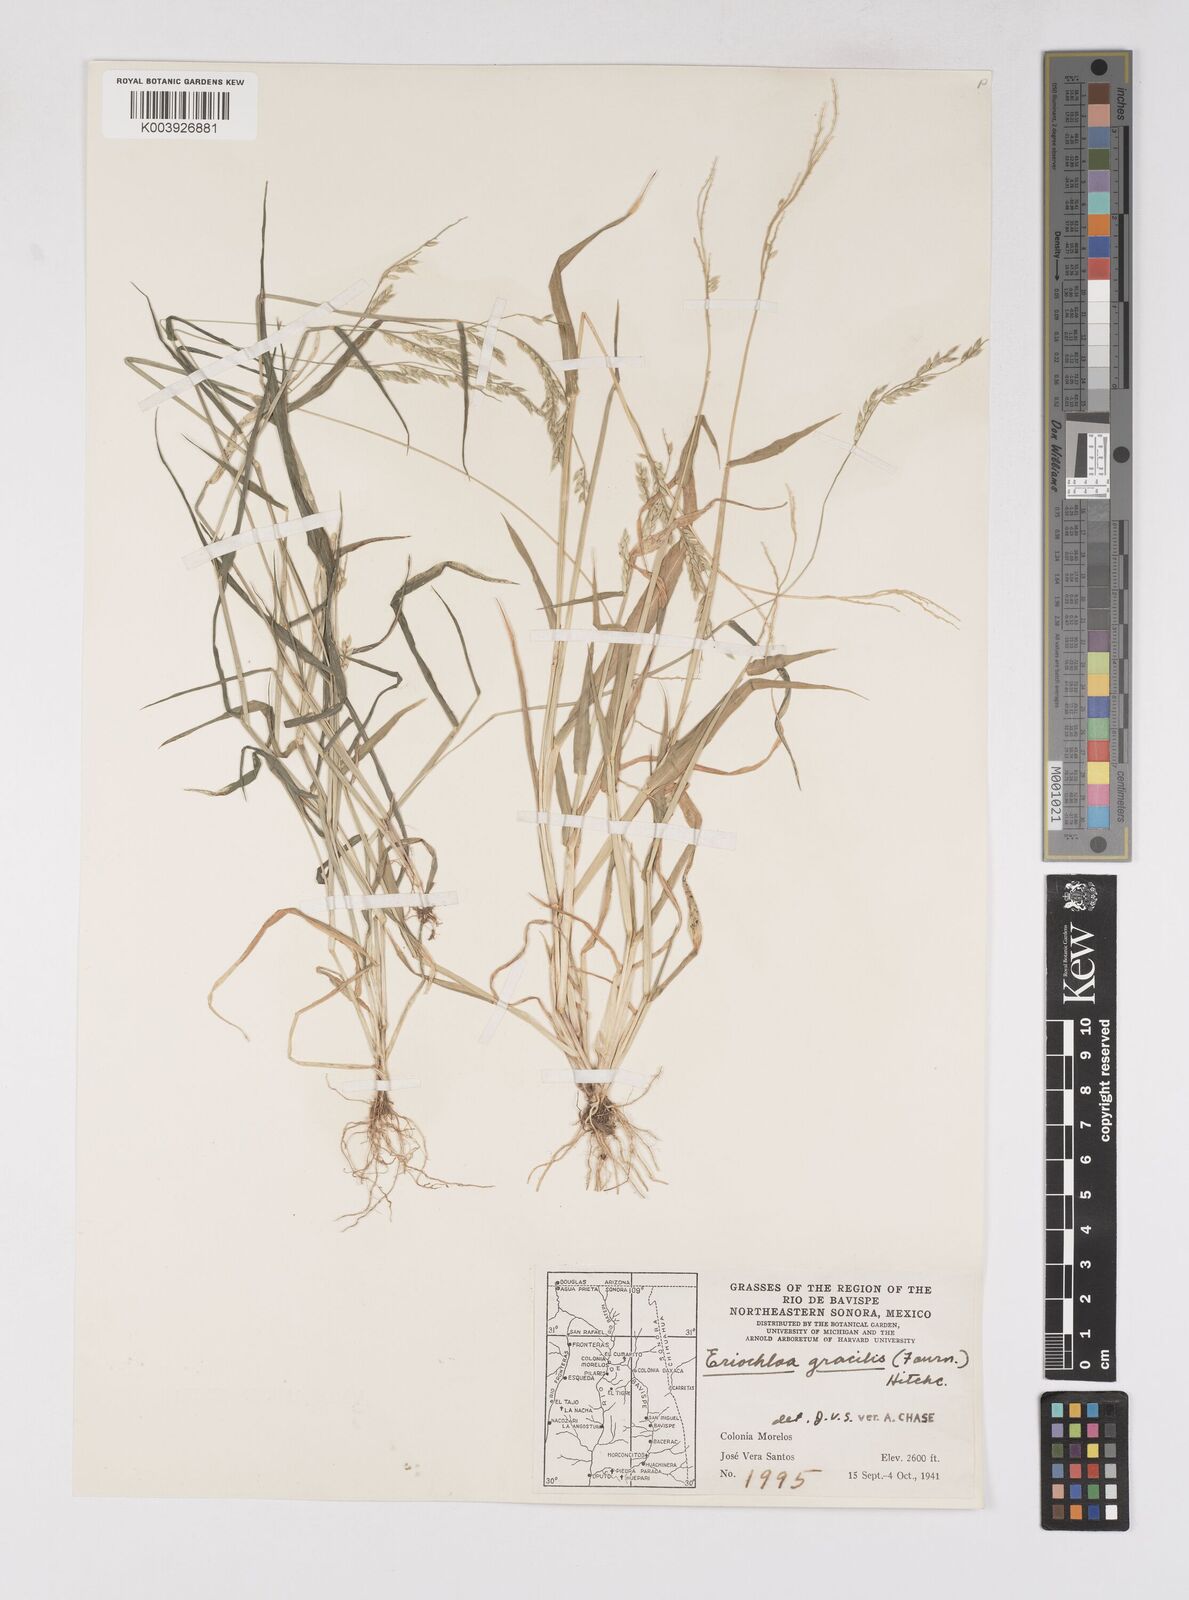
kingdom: Plantae
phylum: Tracheophyta
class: Liliopsida
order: Poales
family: Poaceae
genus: Eriochloa
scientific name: Eriochloa acuminata
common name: Southwestern cup grass
